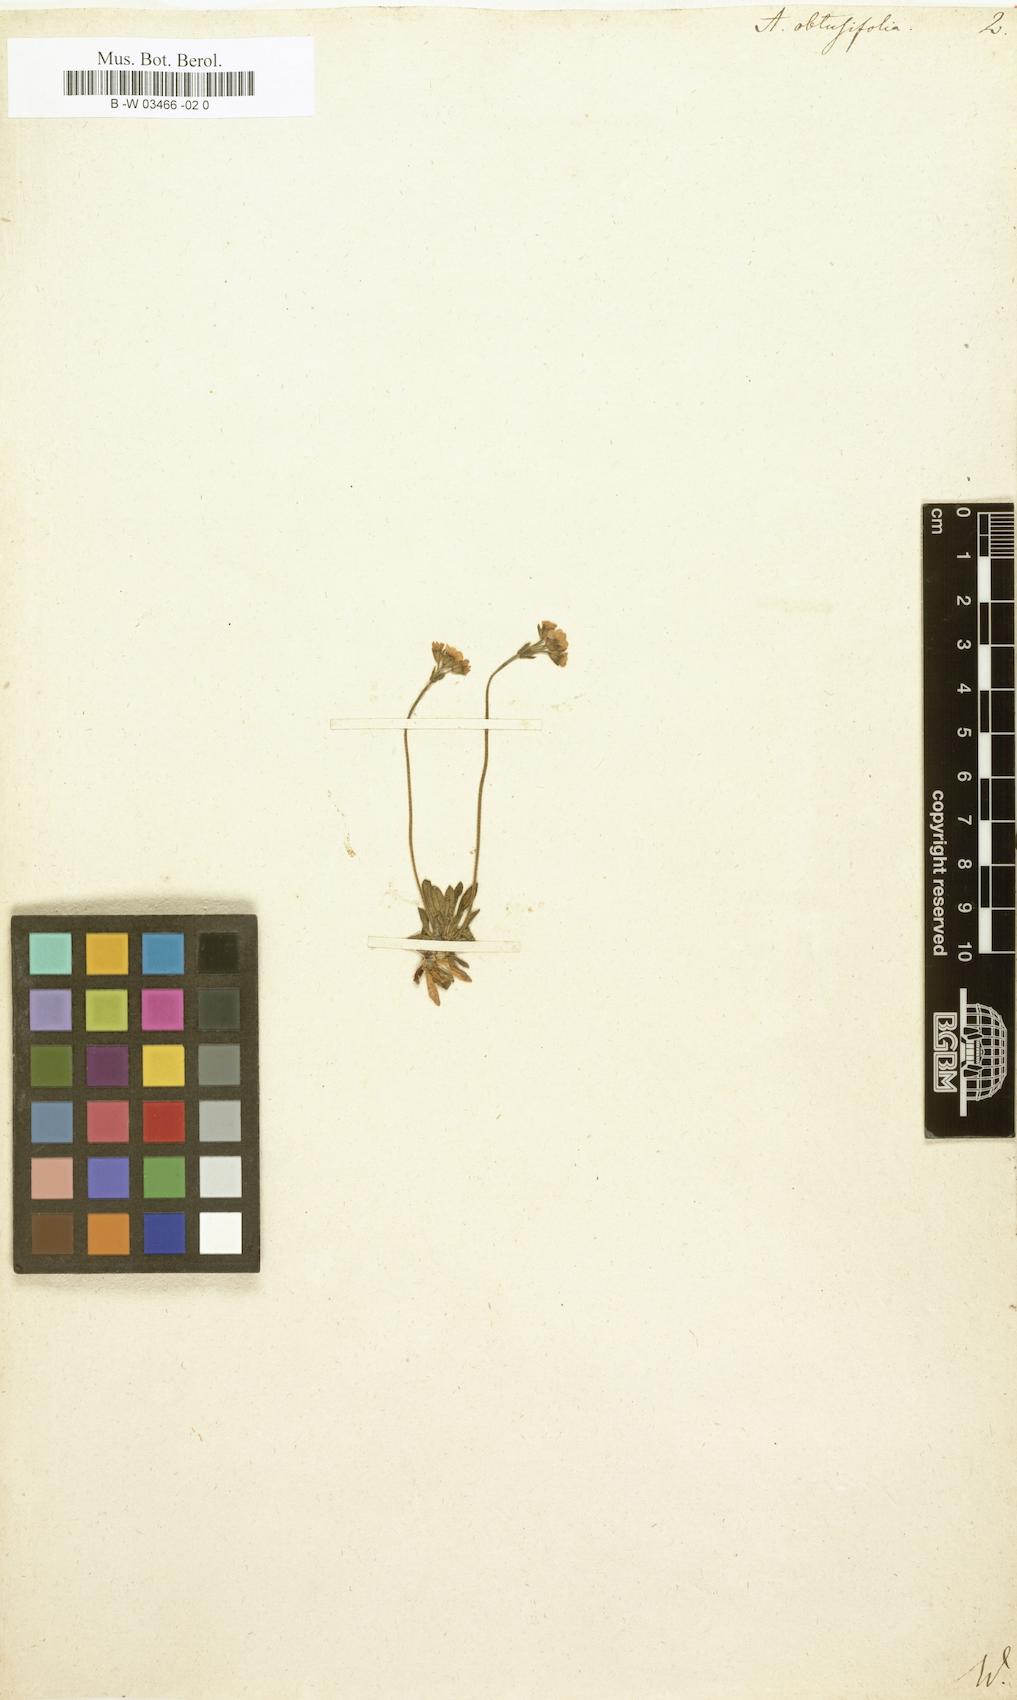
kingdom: Plantae
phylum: Tracheophyta
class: Magnoliopsida
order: Ericales
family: Primulaceae
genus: Androsace
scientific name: Androsace obtusifolia
